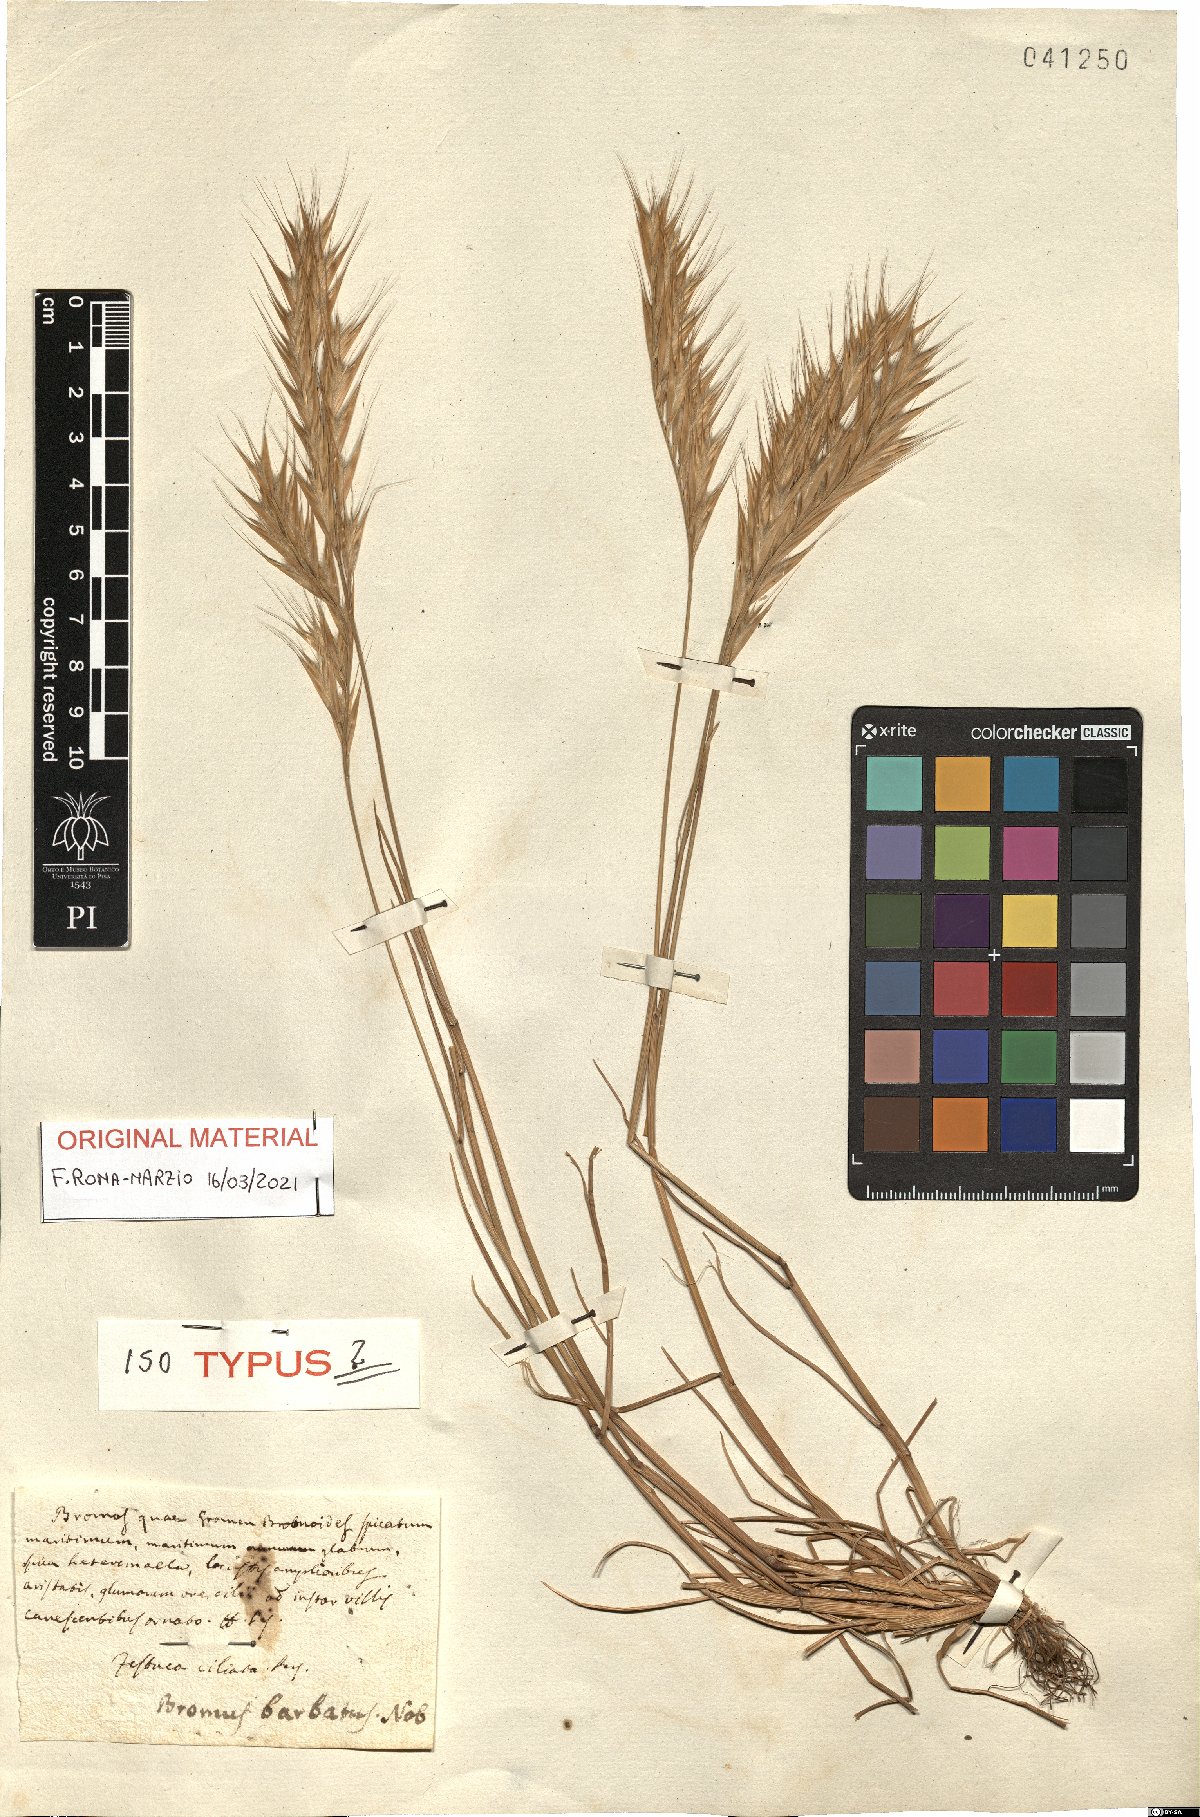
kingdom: Plantae
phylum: Tracheophyta
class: Liliopsida
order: Poales
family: Poaceae
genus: Festuca
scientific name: Festuca alopecuros
